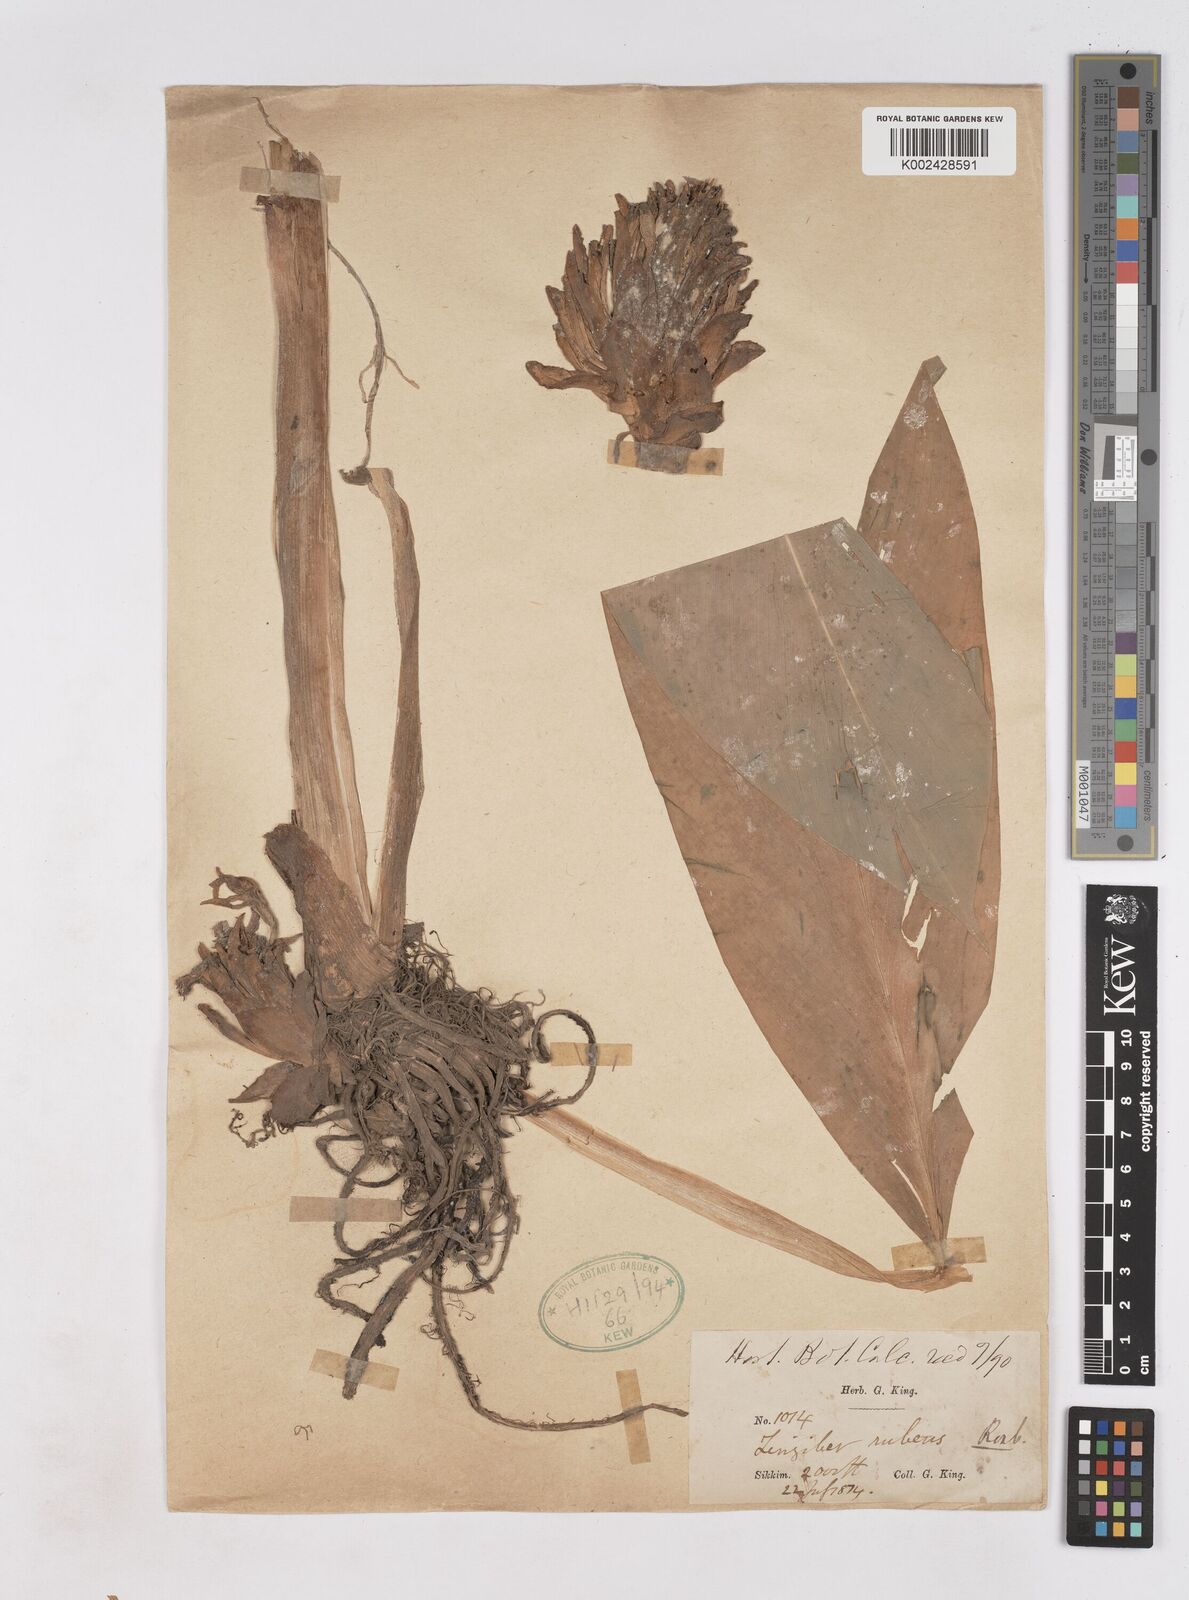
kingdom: Plantae
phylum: Tracheophyta
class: Liliopsida
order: Zingiberales
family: Zingiberaceae
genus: Zingiber
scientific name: Zingiber rubens
